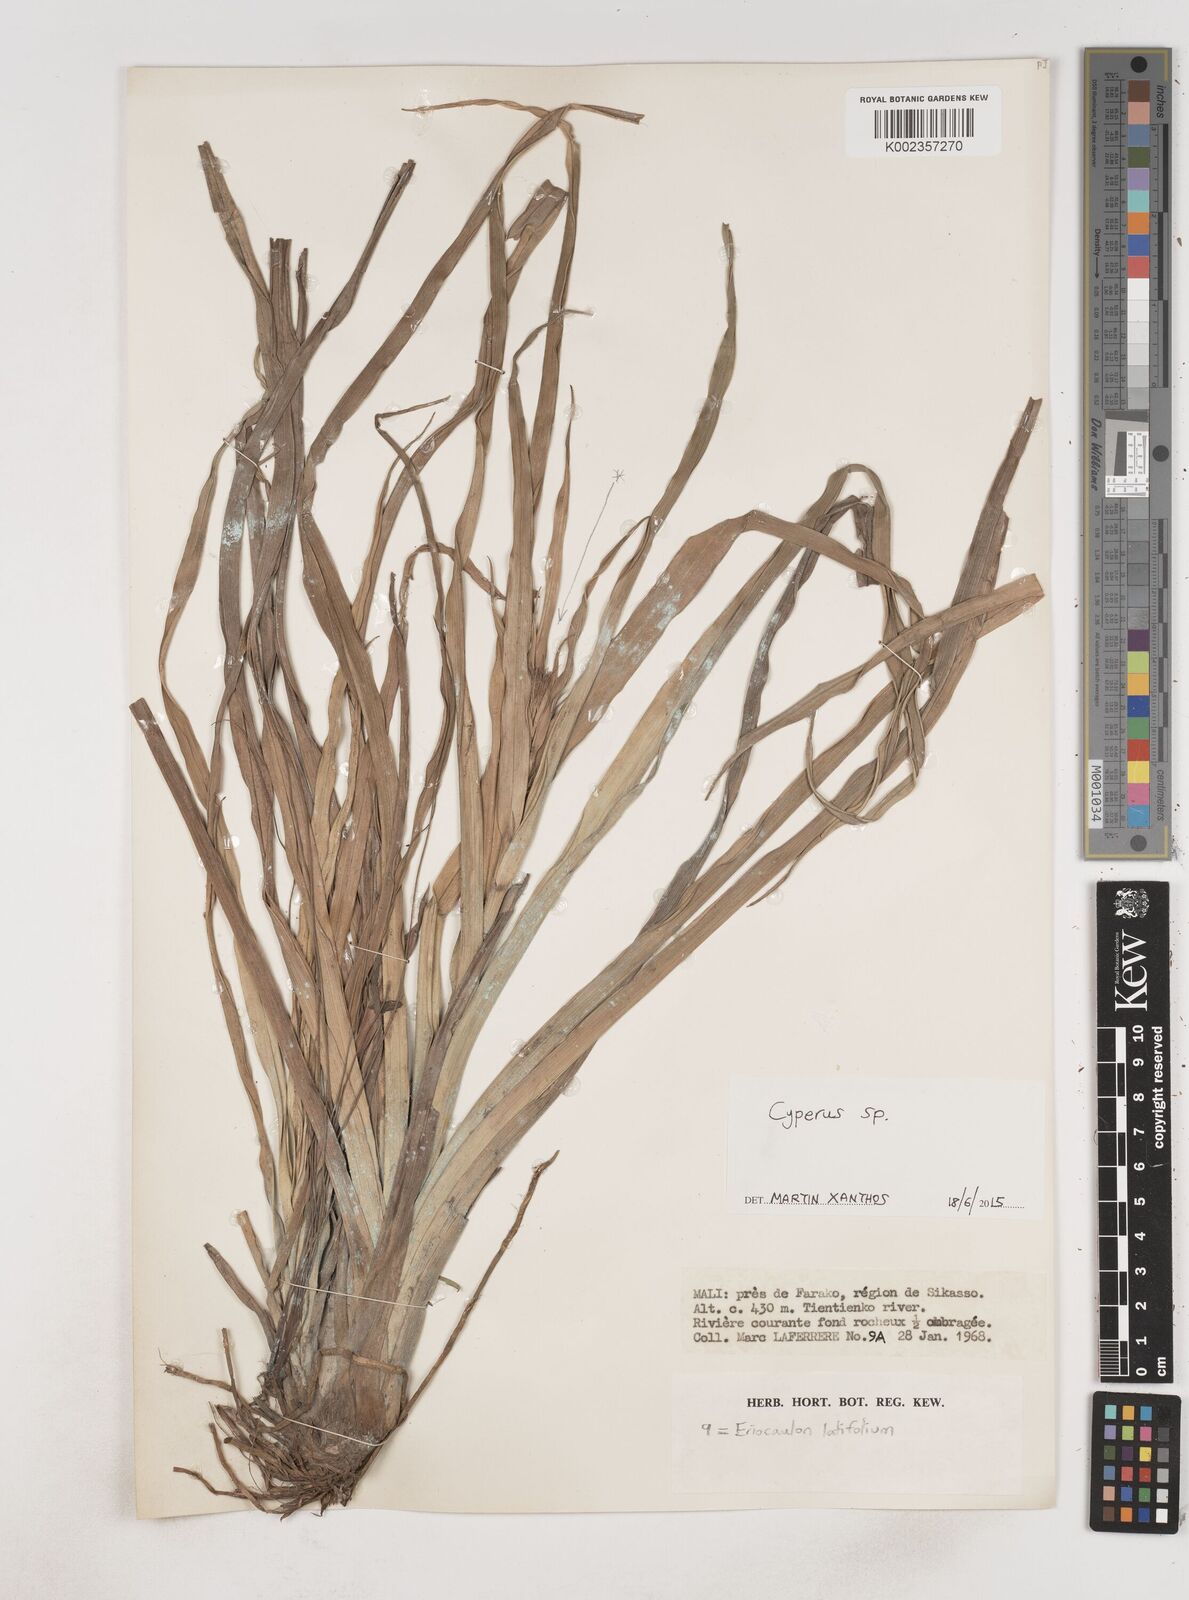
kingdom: Plantae
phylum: Tracheophyta
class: Liliopsida
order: Poales
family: Cyperaceae
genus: Cyperus
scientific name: Cyperus
